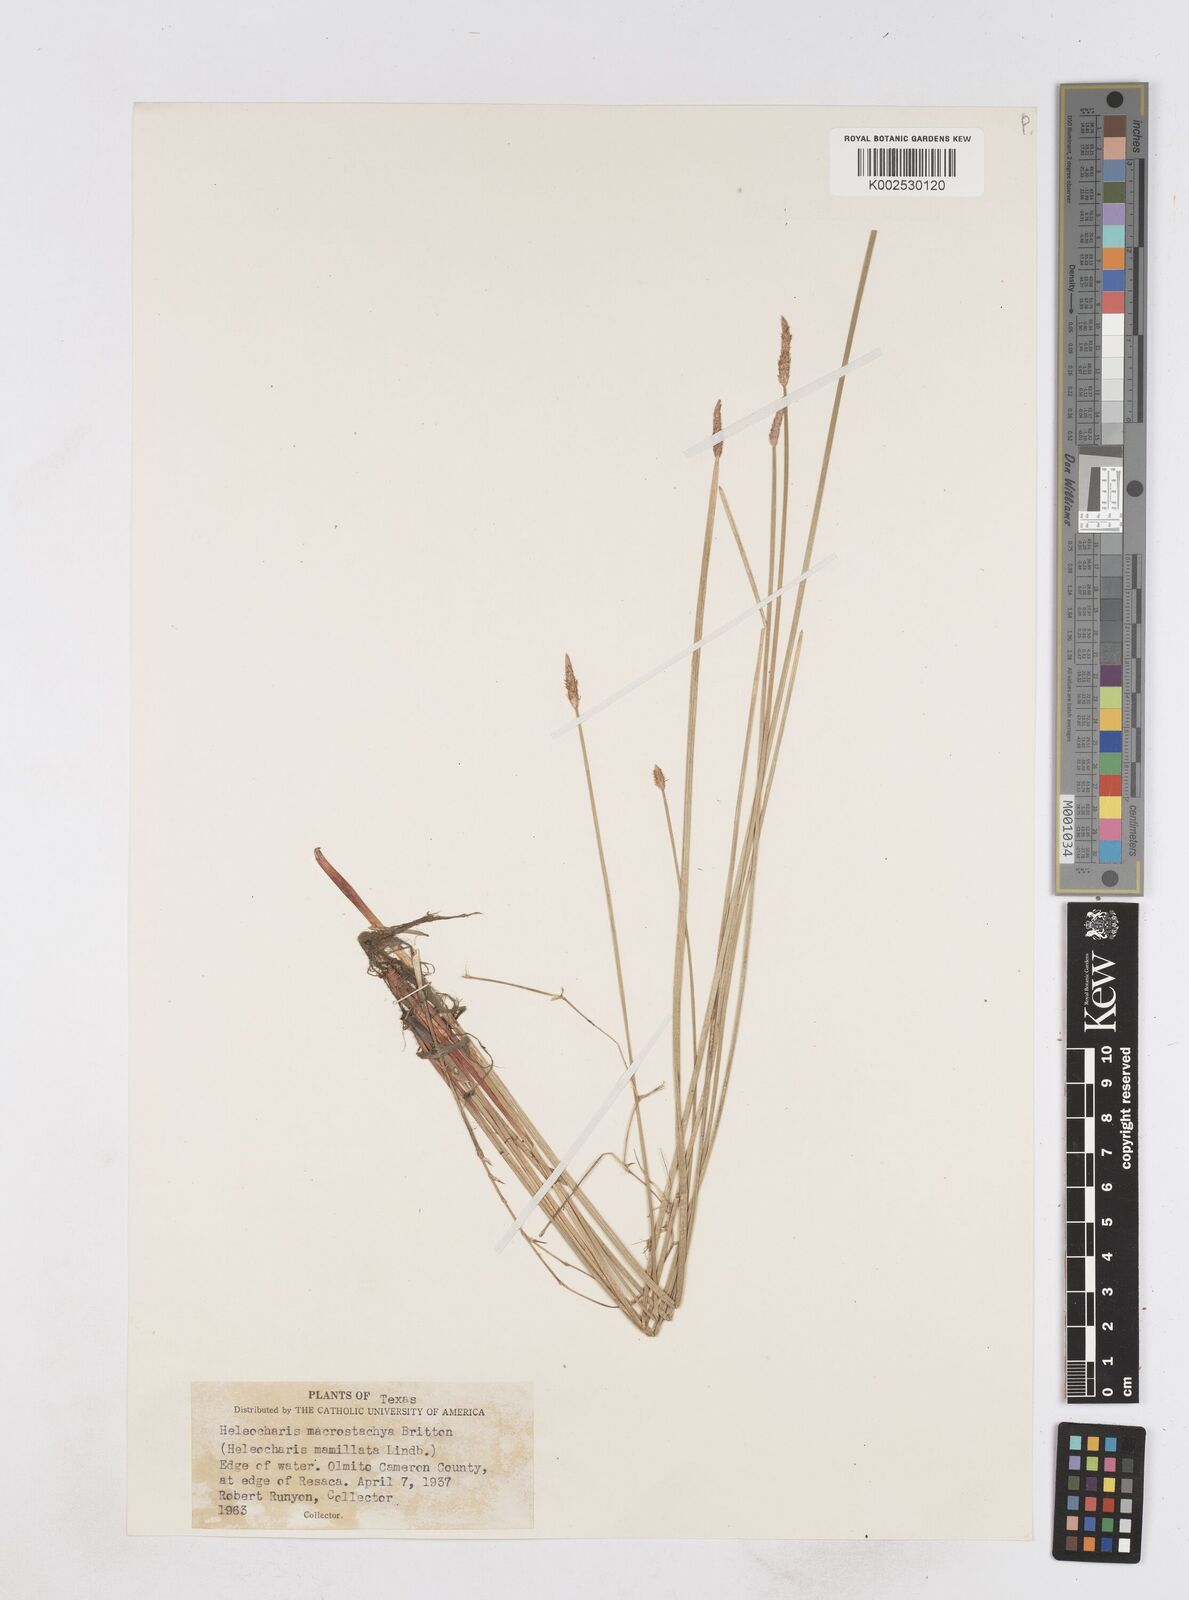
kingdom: Plantae
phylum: Tracheophyta
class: Liliopsida
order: Poales
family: Cyperaceae
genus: Eleocharis
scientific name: Eleocharis macrostachya
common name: Pale spikerush
